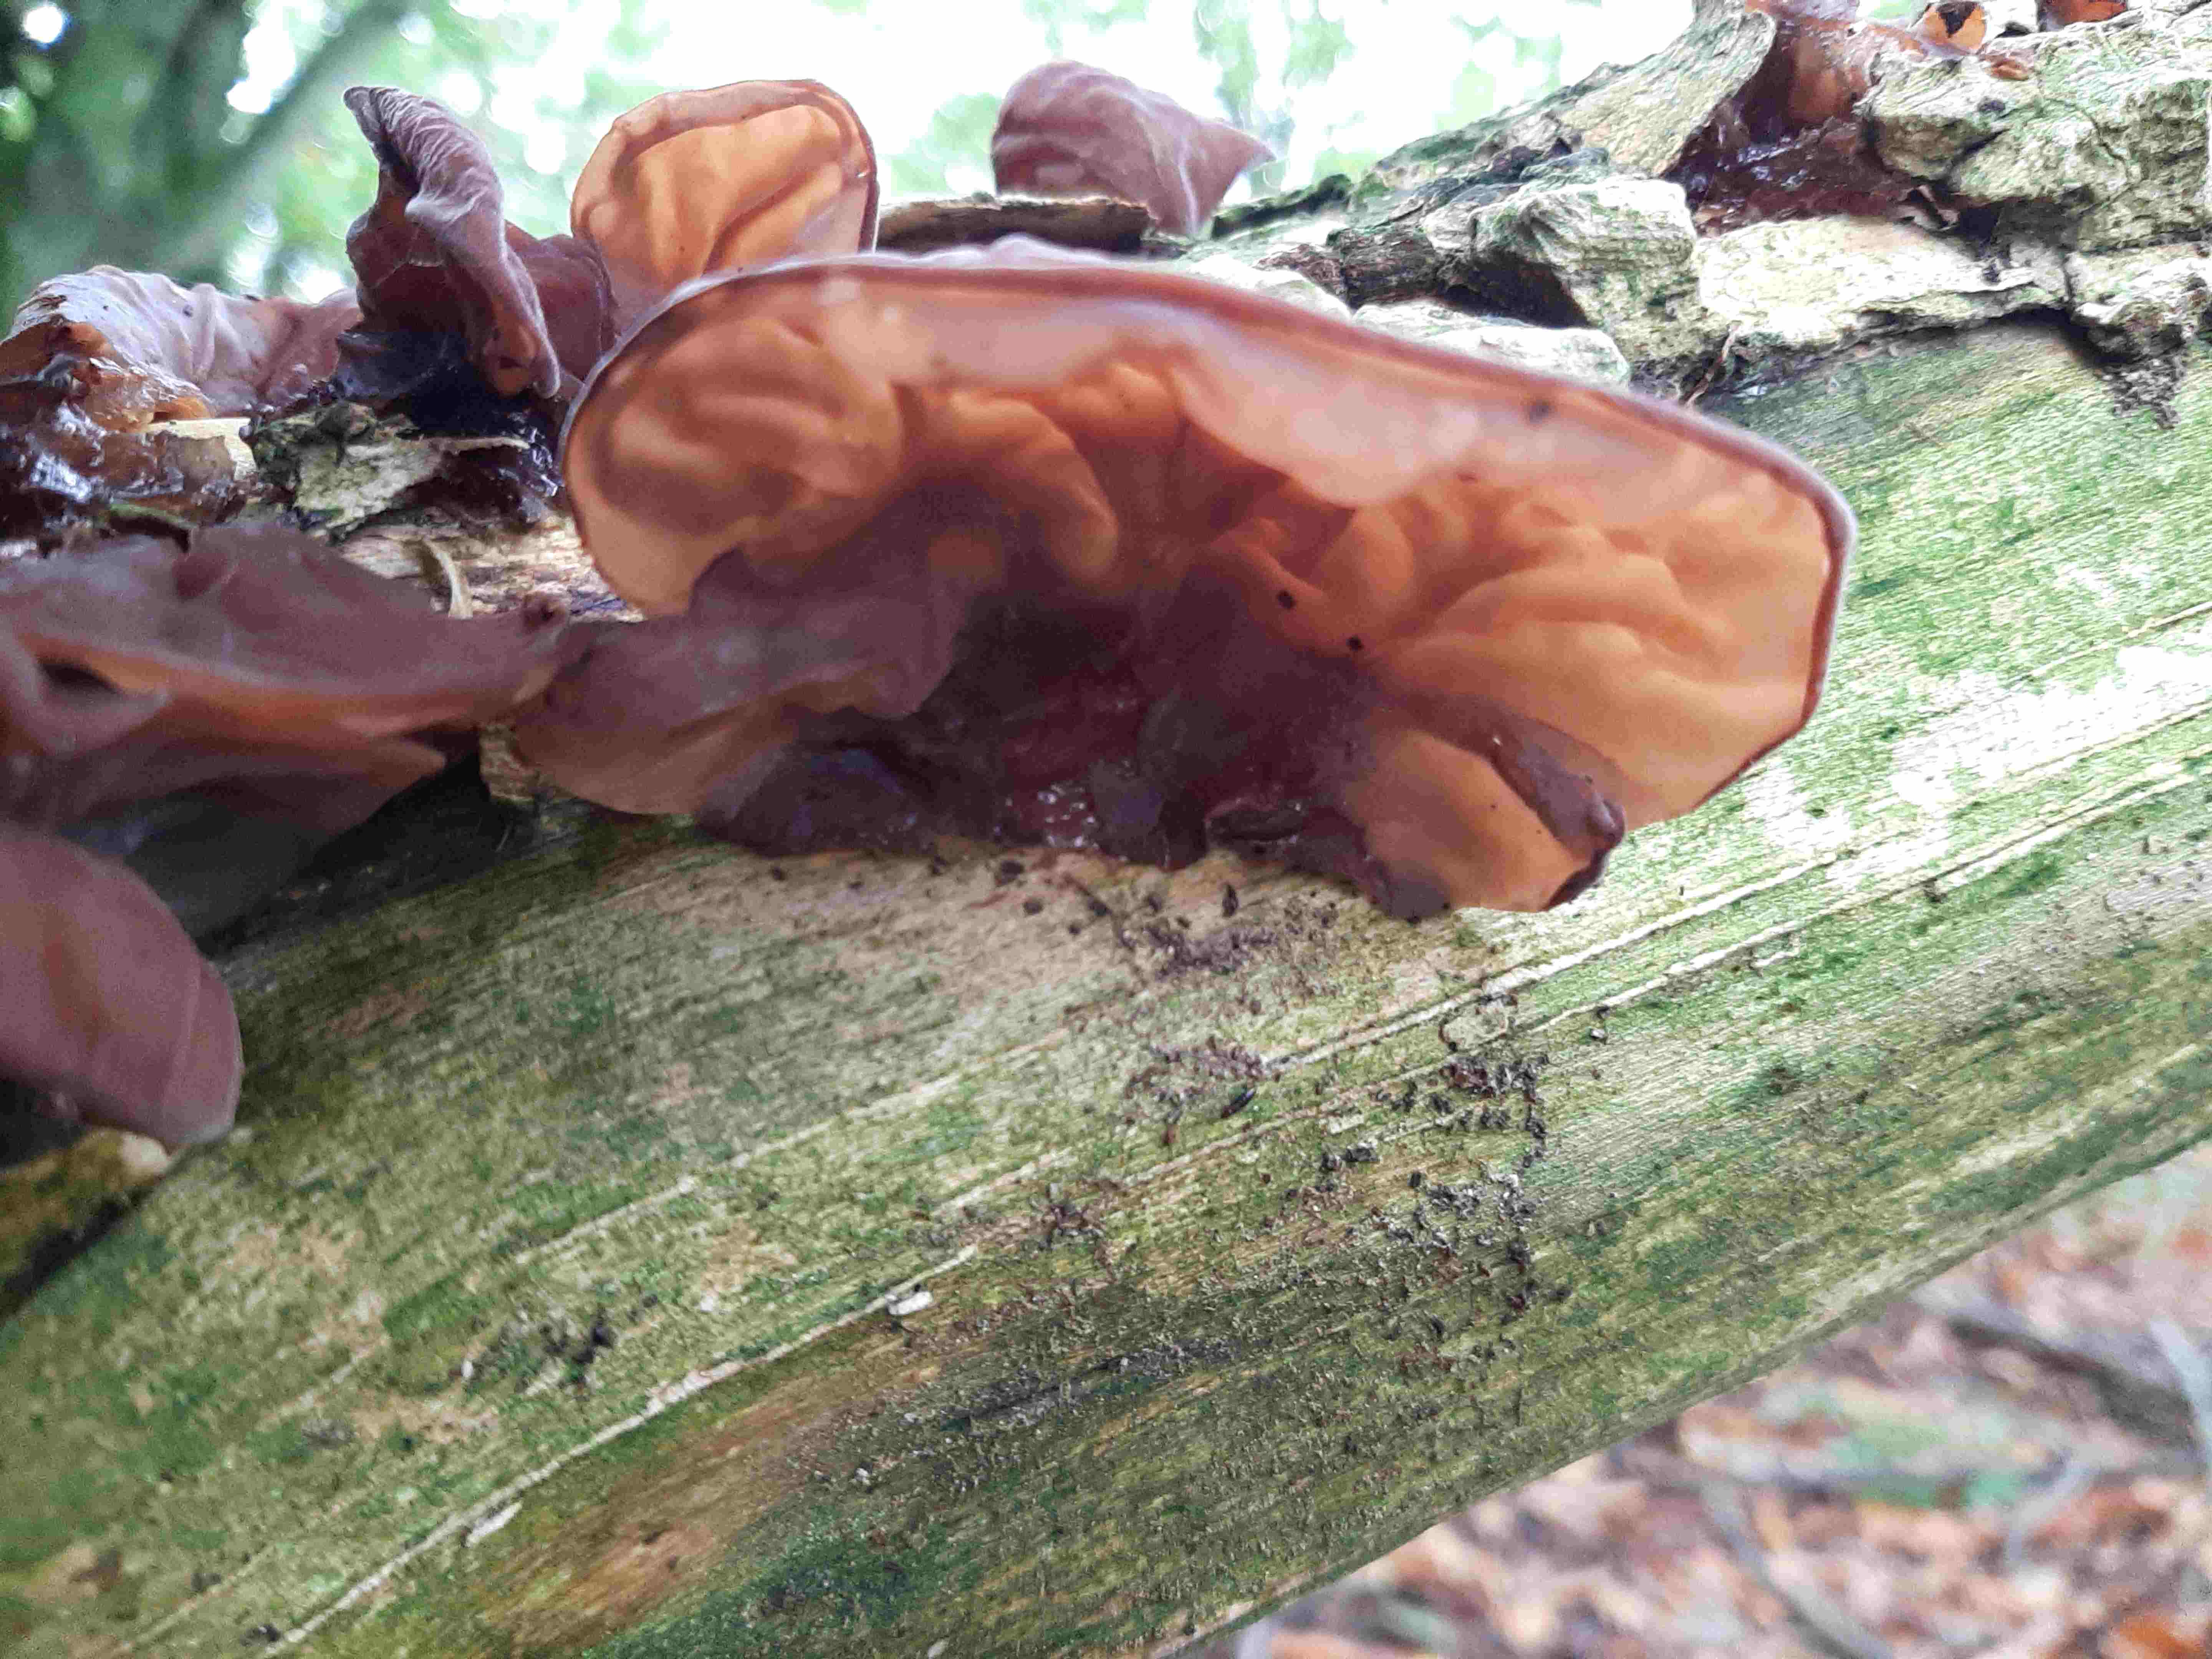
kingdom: Fungi
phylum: Basidiomycota
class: Agaricomycetes
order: Auriculariales
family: Auriculariaceae
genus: Auricularia
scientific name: Auricularia auricula-judae
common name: almindelig judasøre
